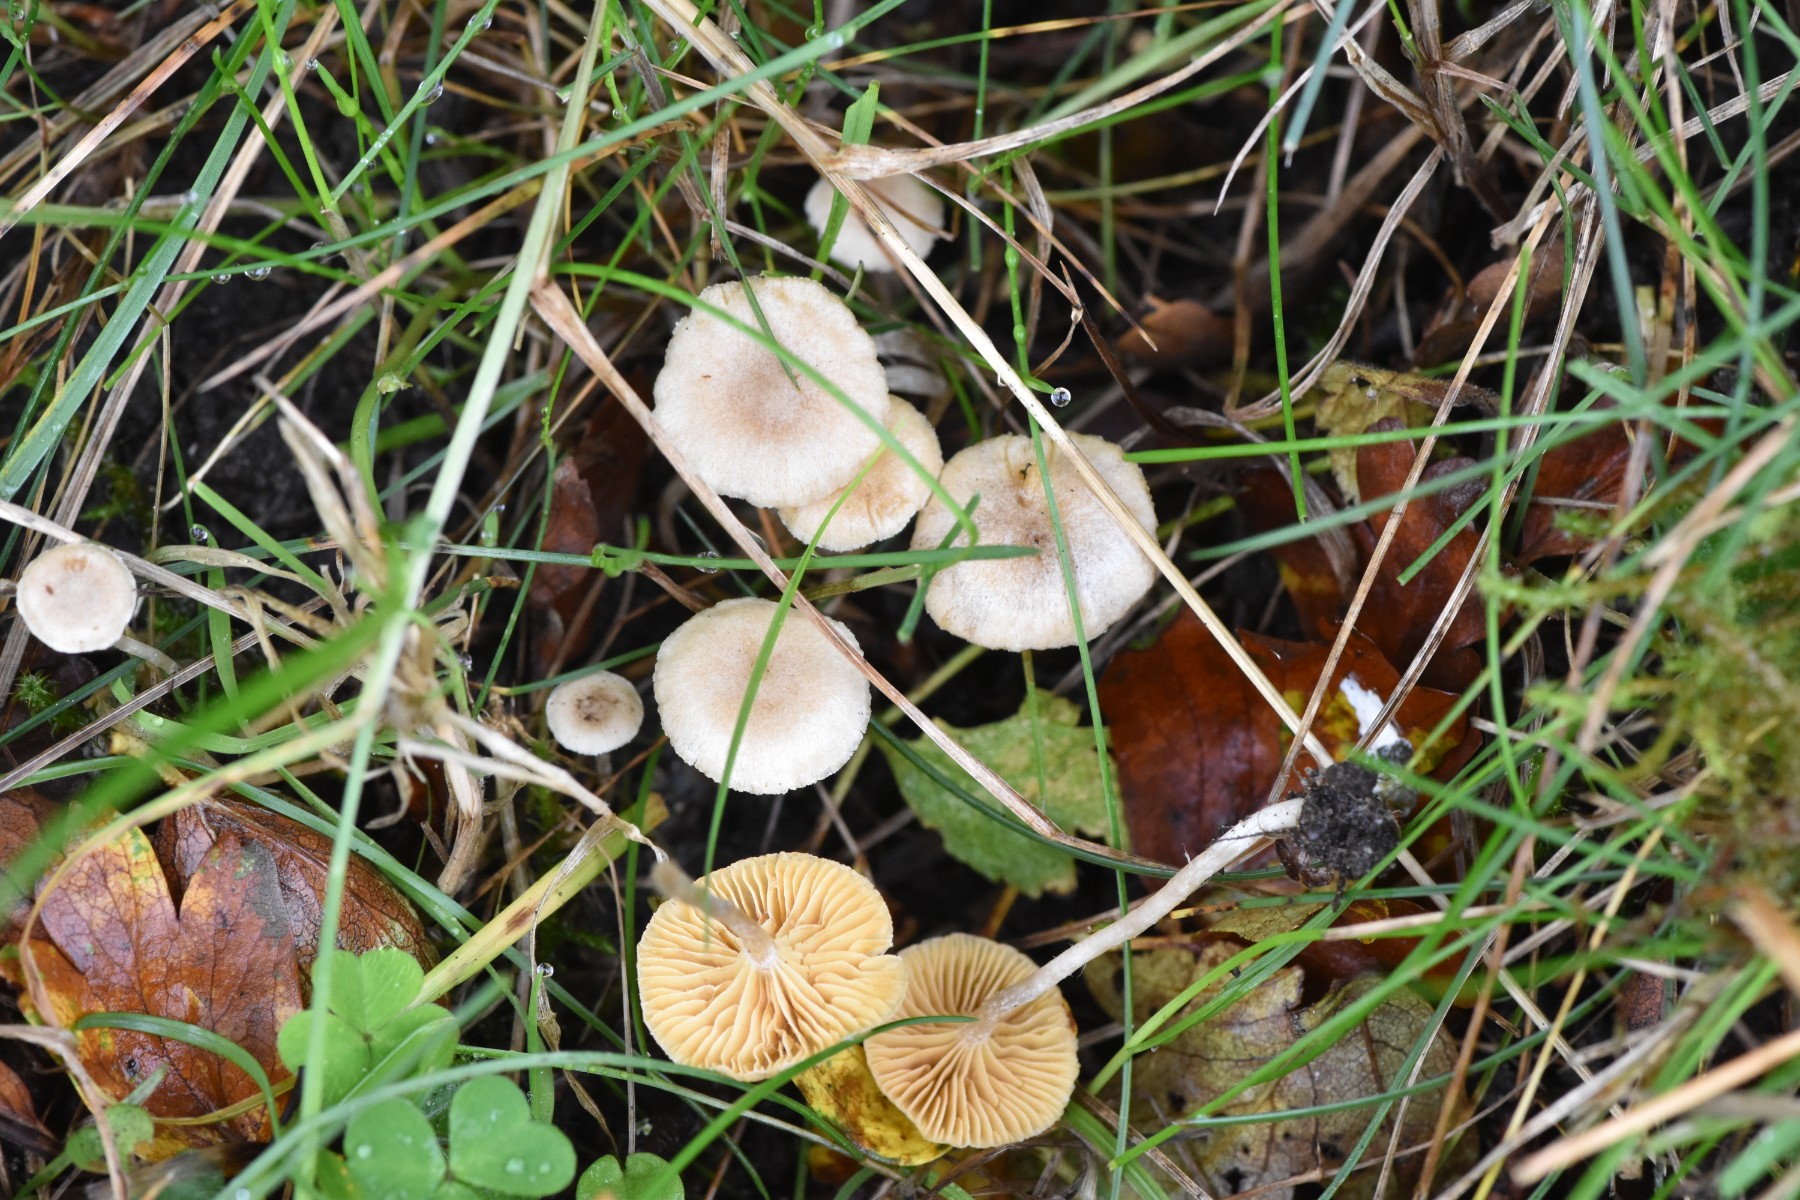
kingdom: Fungi
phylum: Basidiomycota
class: Agaricomycetes
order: Agaricales
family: Tubariaceae
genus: Tubaria
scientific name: Tubaria dispersa
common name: tjørne-fnughat
